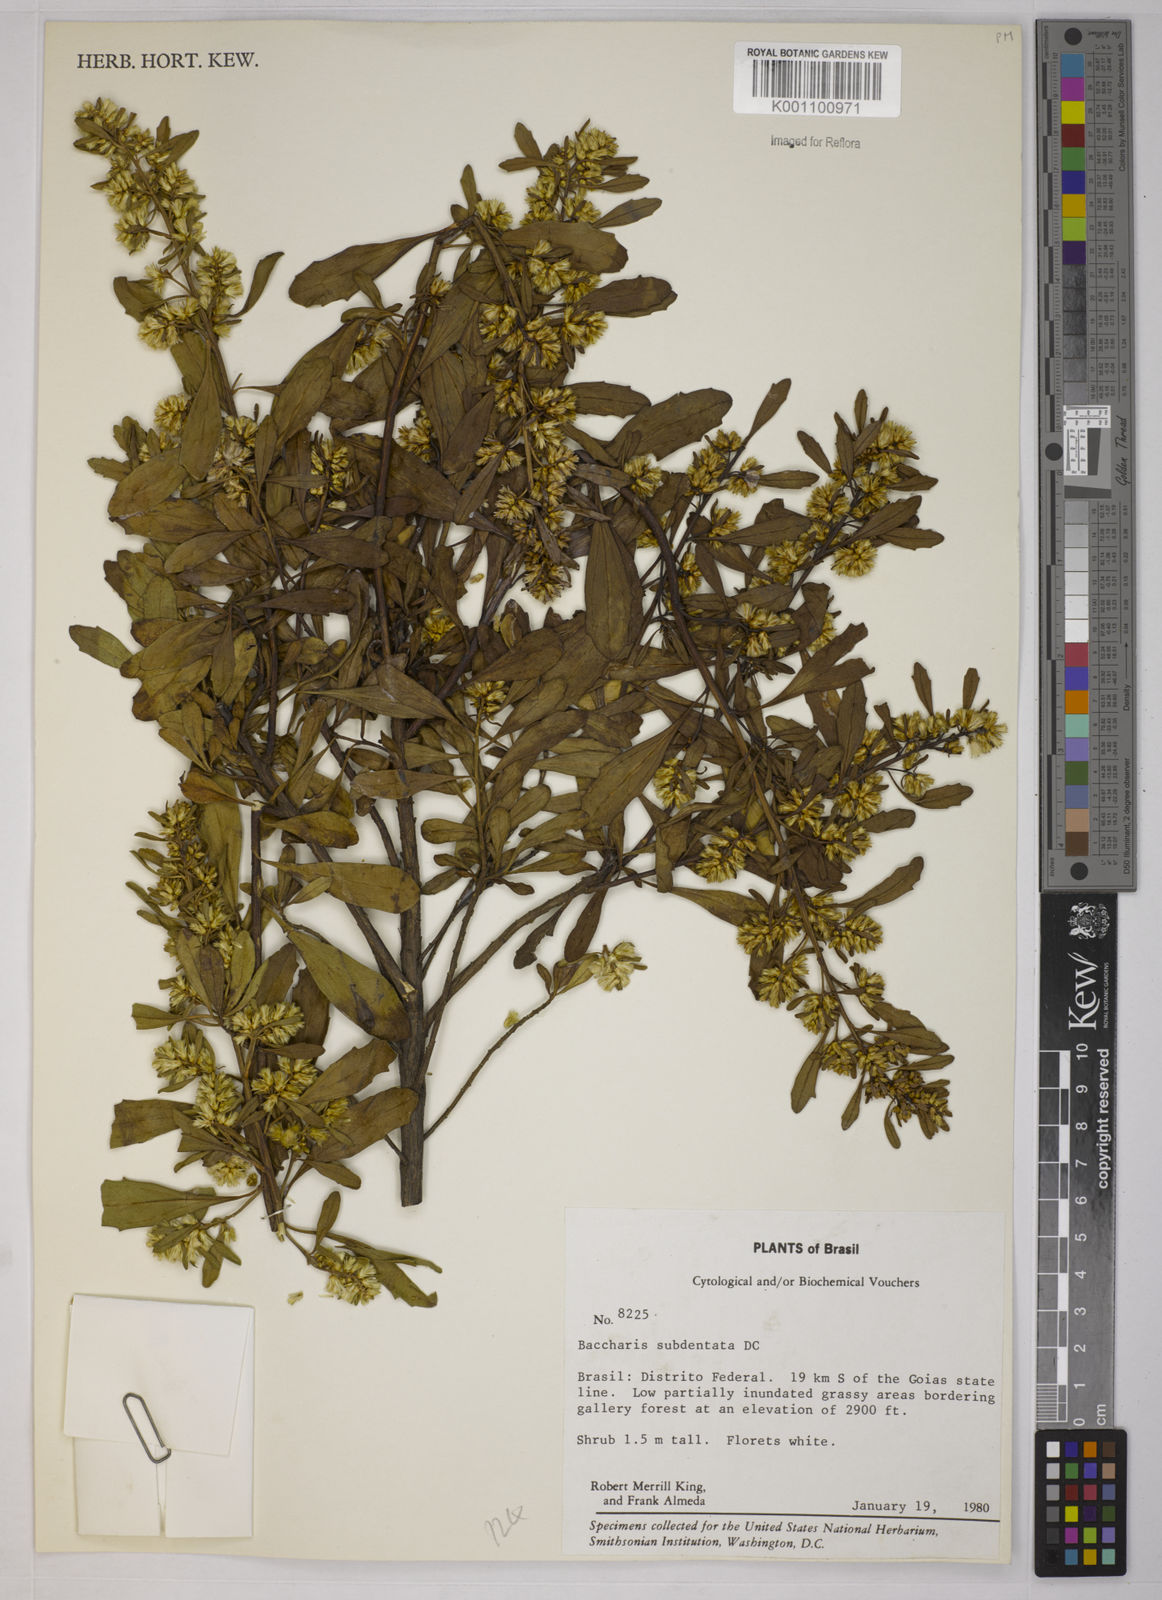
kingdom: Plantae
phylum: Tracheophyta
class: Magnoliopsida
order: Asterales
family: Asteraceae
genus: Baccharis
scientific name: Baccharis subdentata
